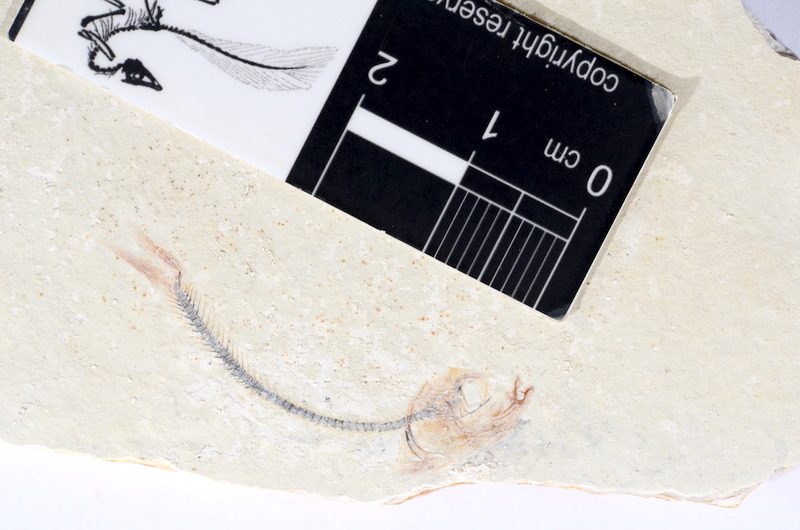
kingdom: Animalia
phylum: Chordata
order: Salmoniformes
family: Orthogonikleithridae
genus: Orthogonikleithrus
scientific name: Orthogonikleithrus hoelli
